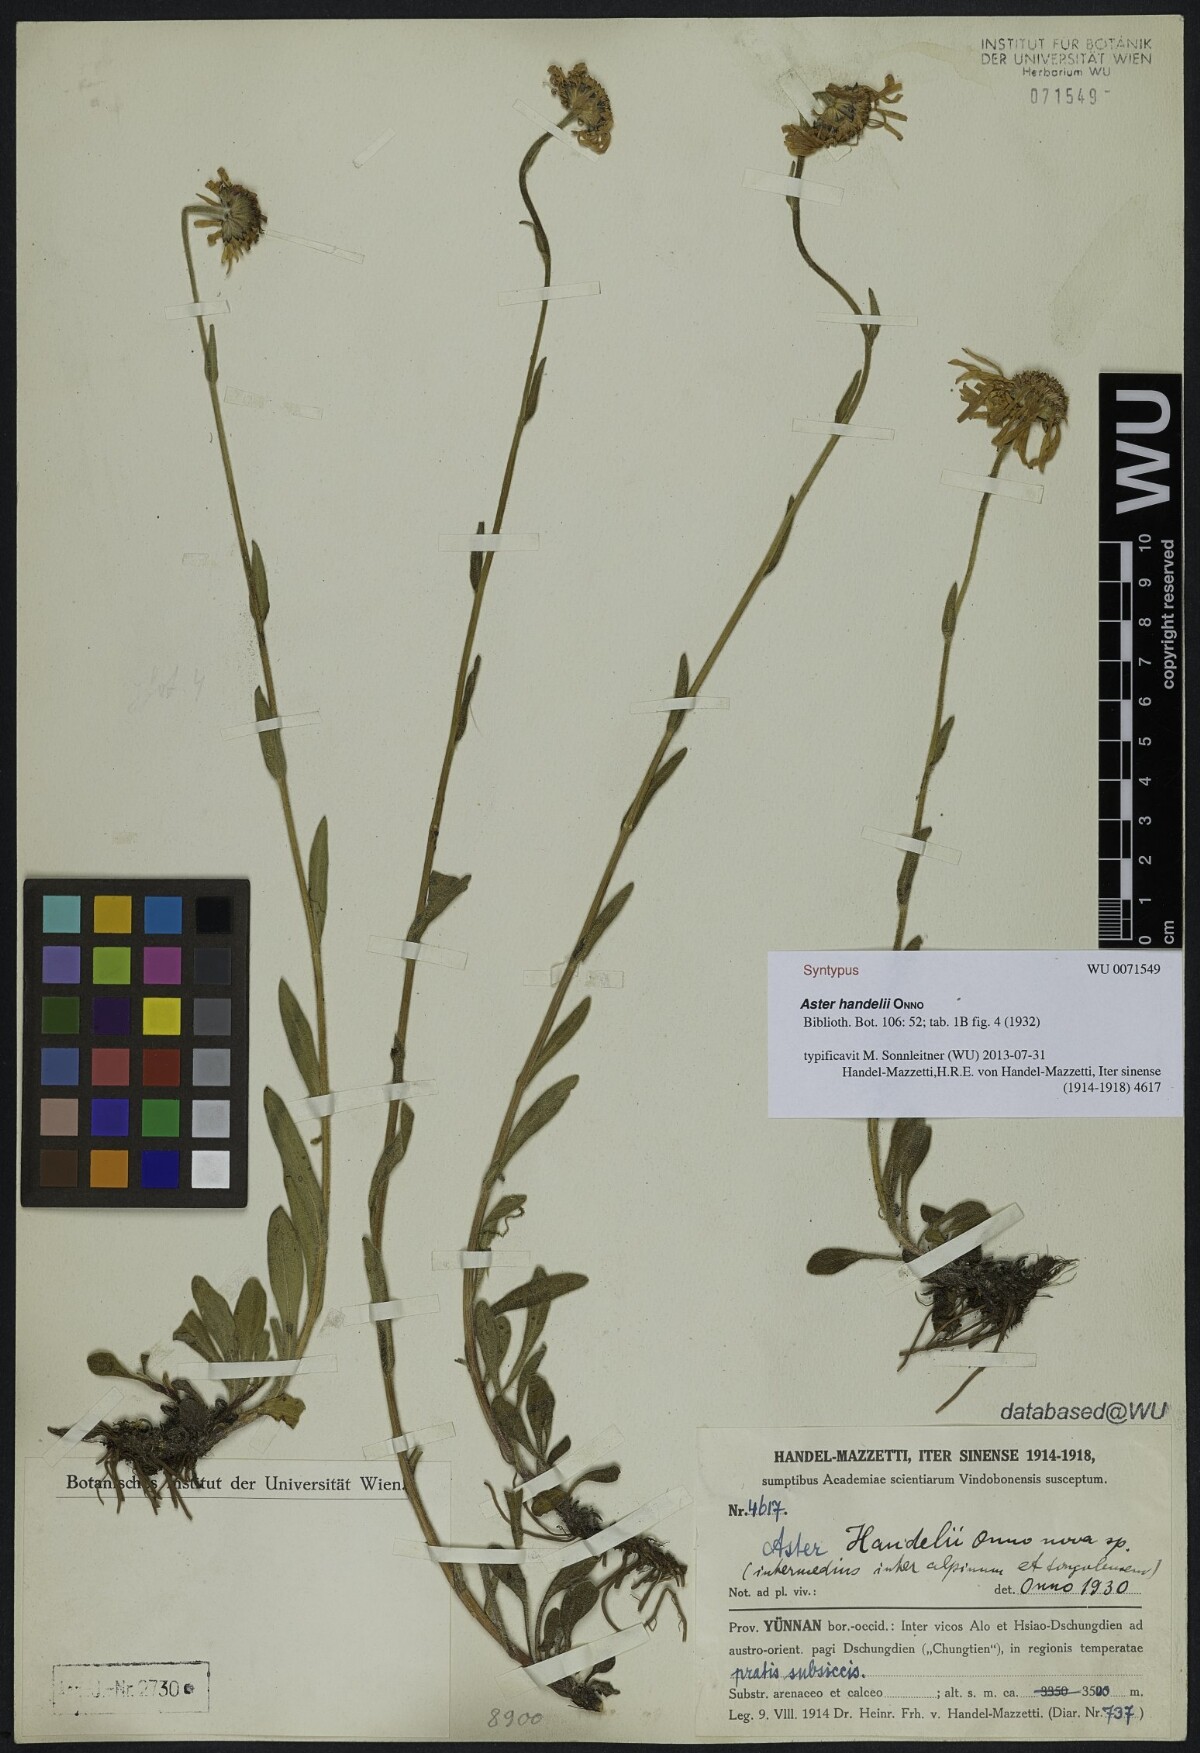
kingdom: Plantae
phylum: Tracheophyta
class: Magnoliopsida
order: Asterales
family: Asteraceae
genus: Aster
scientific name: Aster handelii
